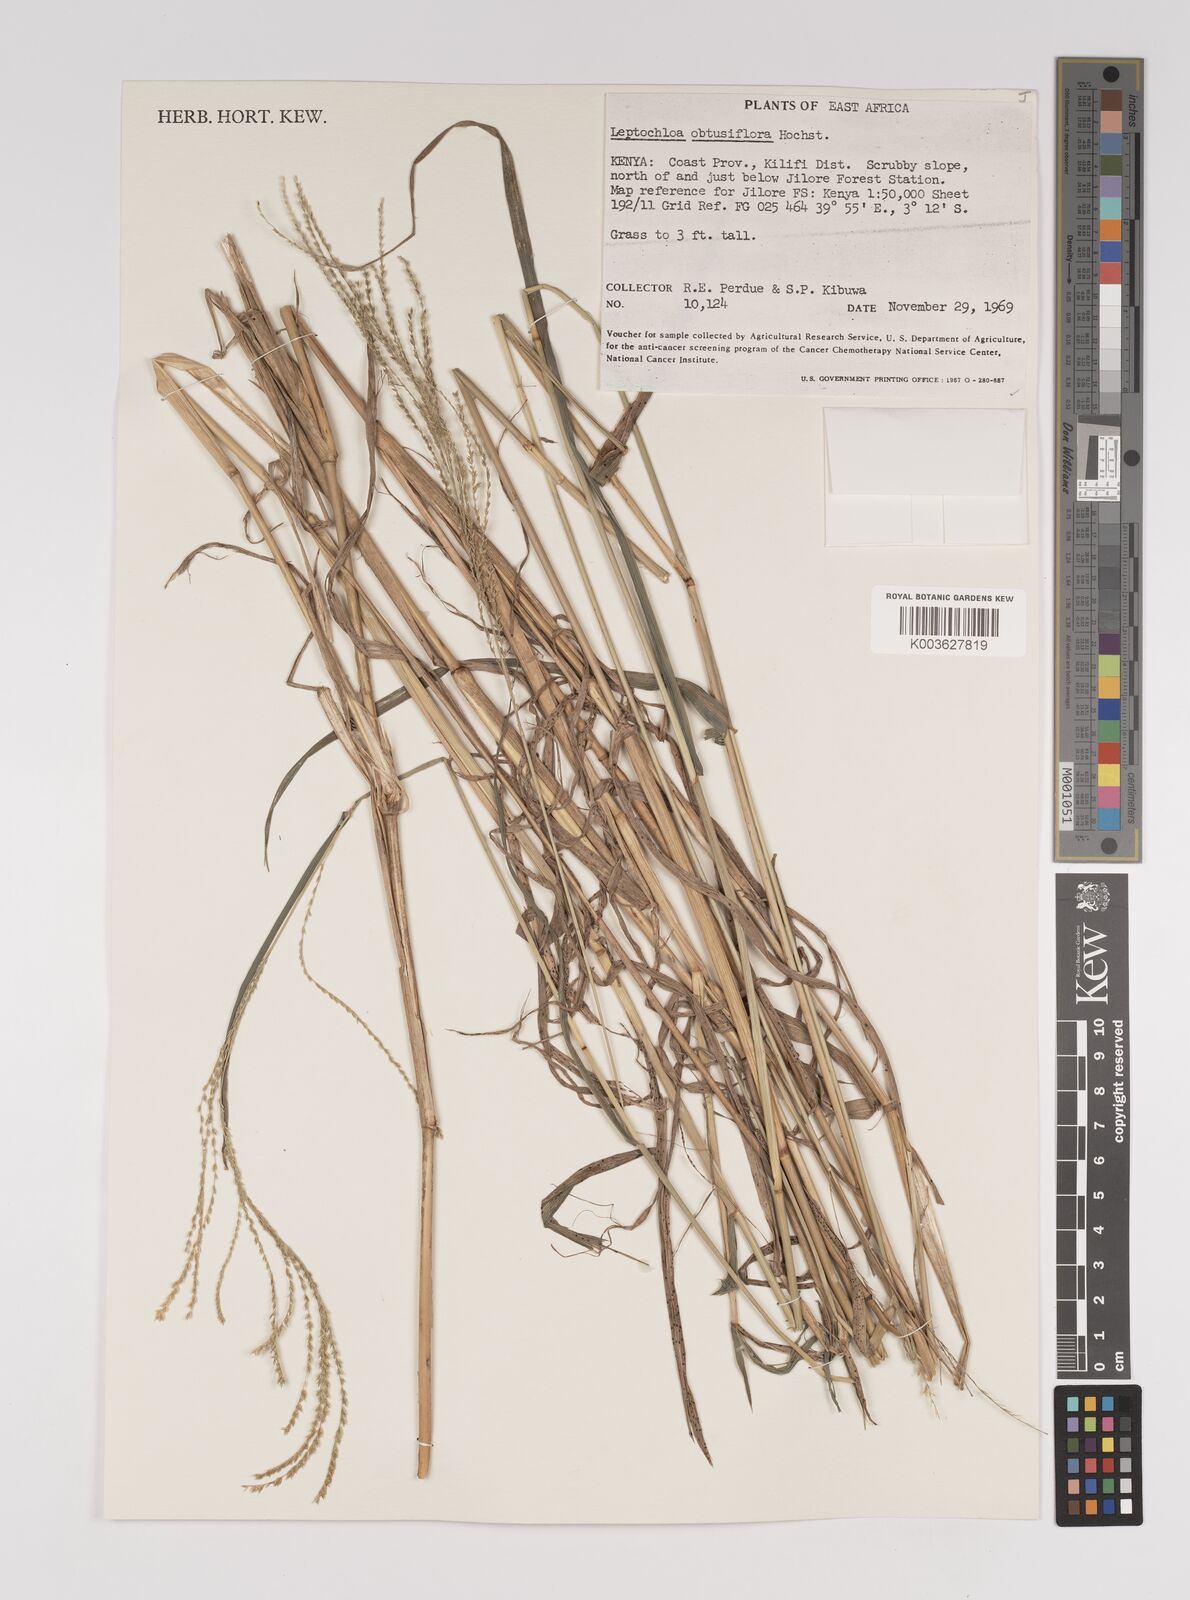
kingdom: Plantae
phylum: Tracheophyta
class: Liliopsida
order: Poales
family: Poaceae
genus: Disakisperma
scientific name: Disakisperma obtusiflorum
